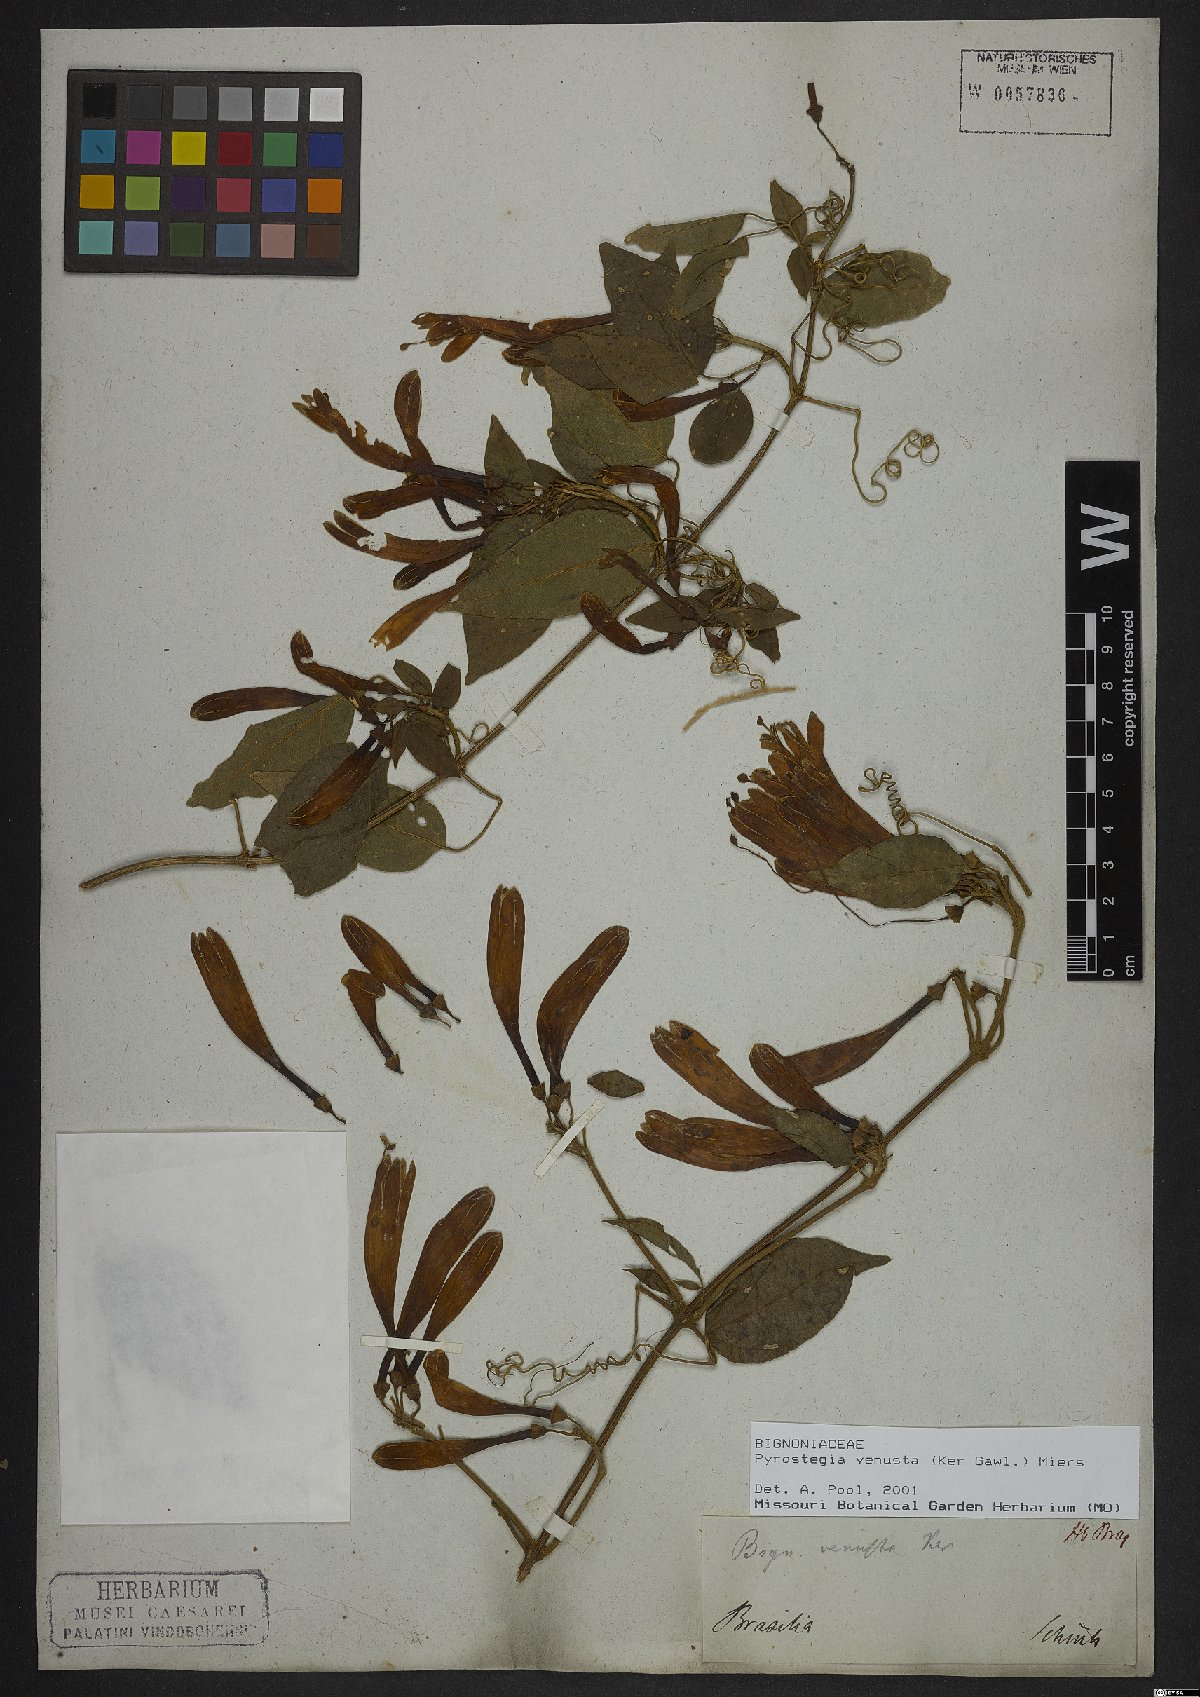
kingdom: Plantae
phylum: Tracheophyta
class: Magnoliopsida
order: Lamiales
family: Bignoniaceae
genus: Pyrostegia
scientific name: Pyrostegia venusta
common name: Flamevine
